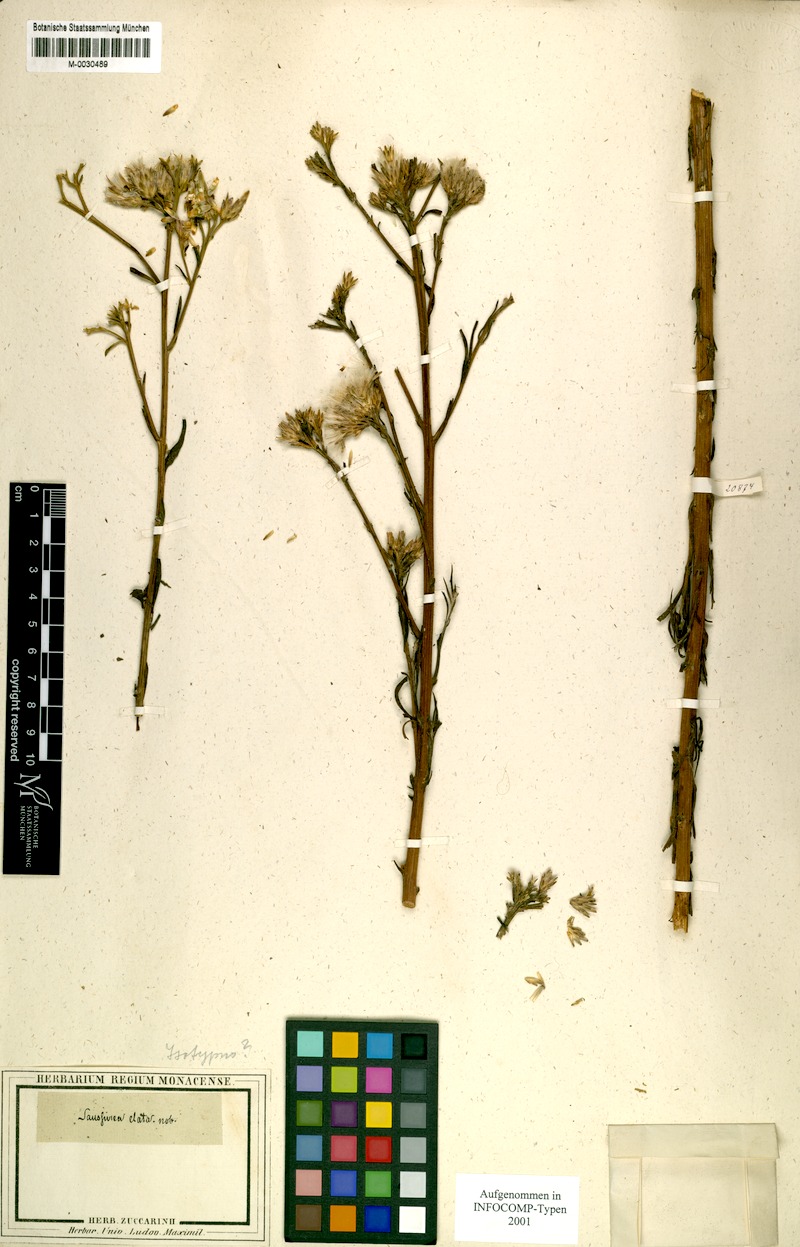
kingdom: Plantae
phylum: Tracheophyta
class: Magnoliopsida
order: Asterales
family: Asteraceae
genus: Saussurea
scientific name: Saussurea elata
